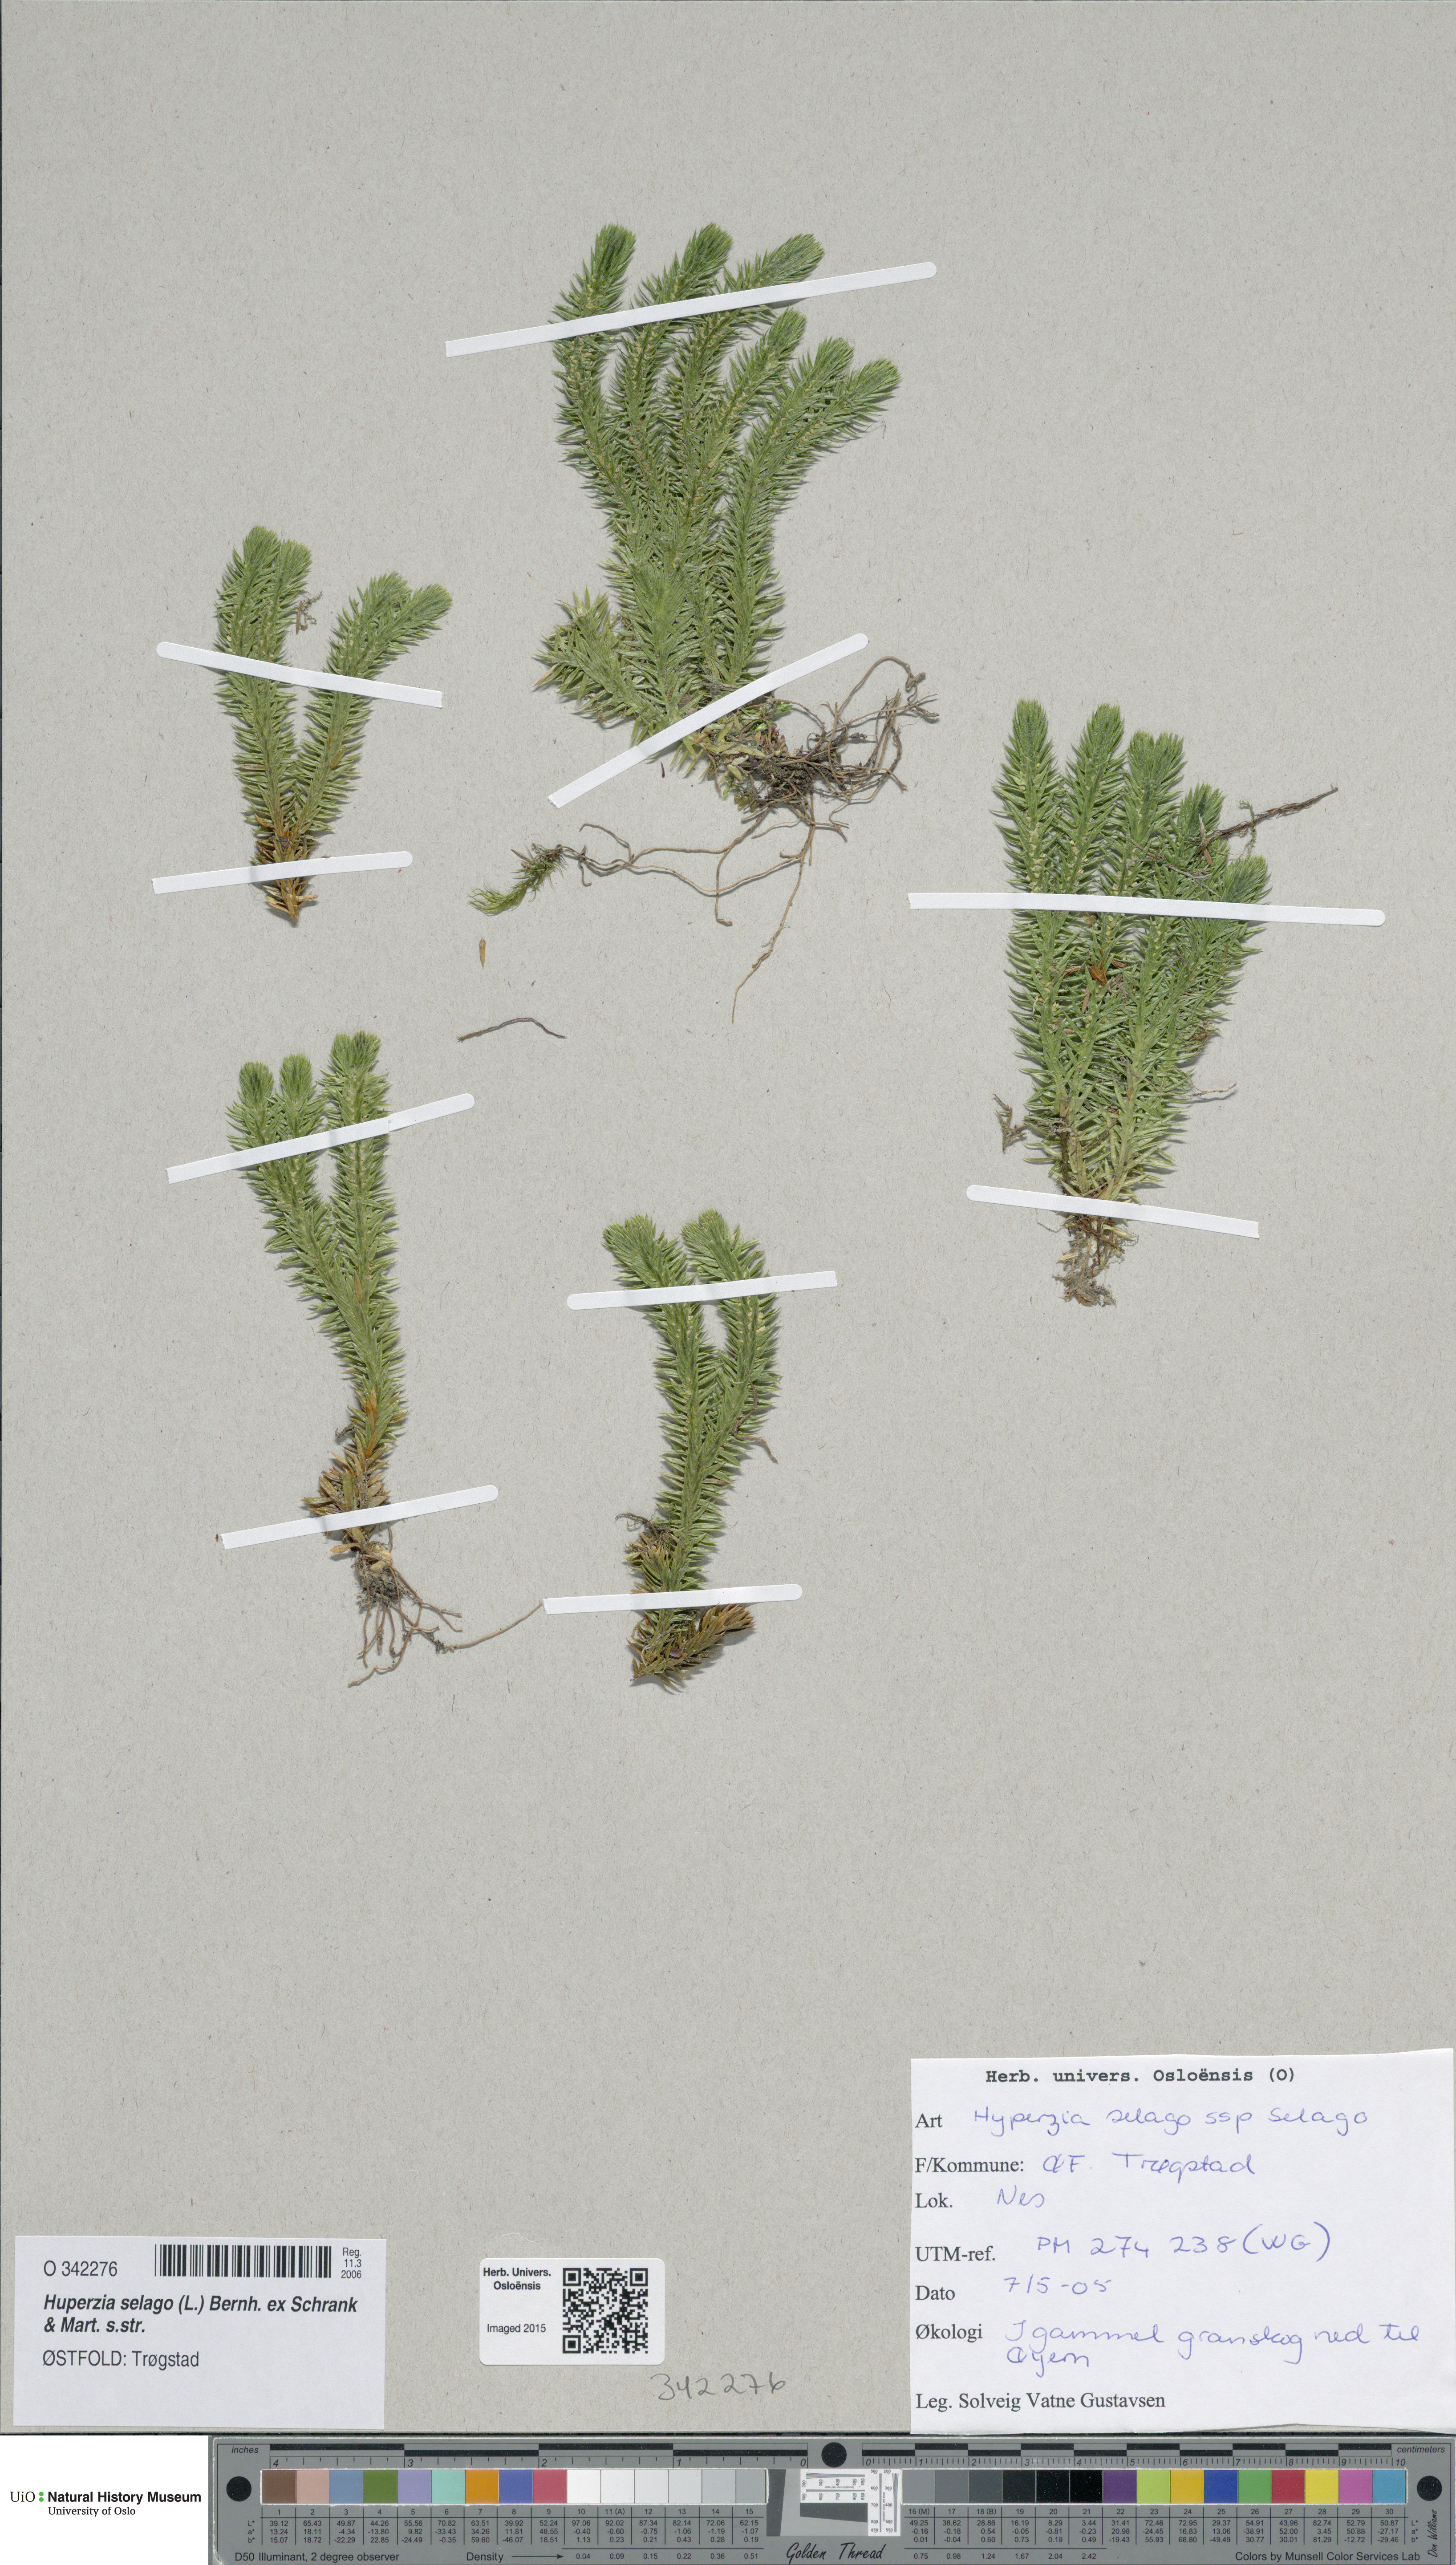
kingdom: Plantae
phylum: Tracheophyta
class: Lycopodiopsida
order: Lycopodiales
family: Lycopodiaceae
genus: Huperzia
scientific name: Huperzia selago
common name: Northern firmoss
